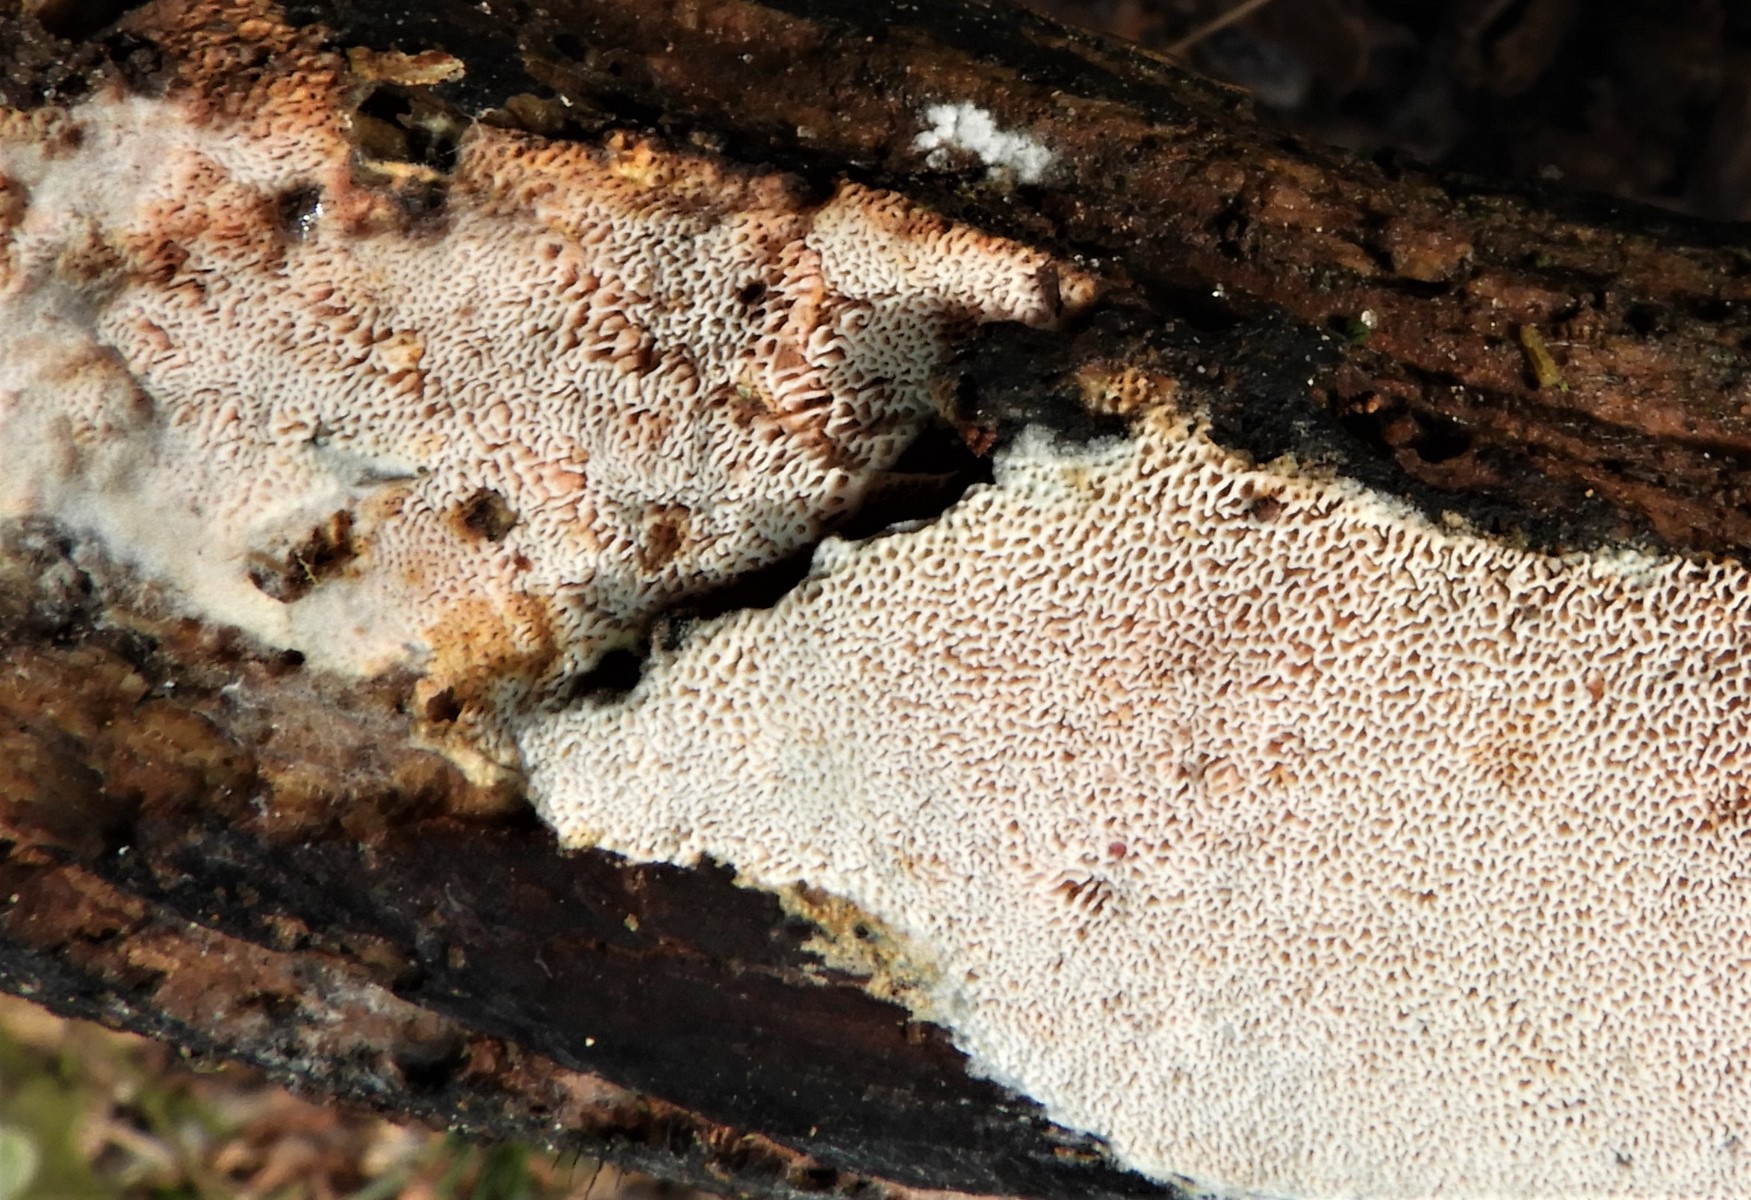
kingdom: Fungi
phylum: Basidiomycota
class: Agaricomycetes
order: Polyporales
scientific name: Polyporales
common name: poresvampordenen
